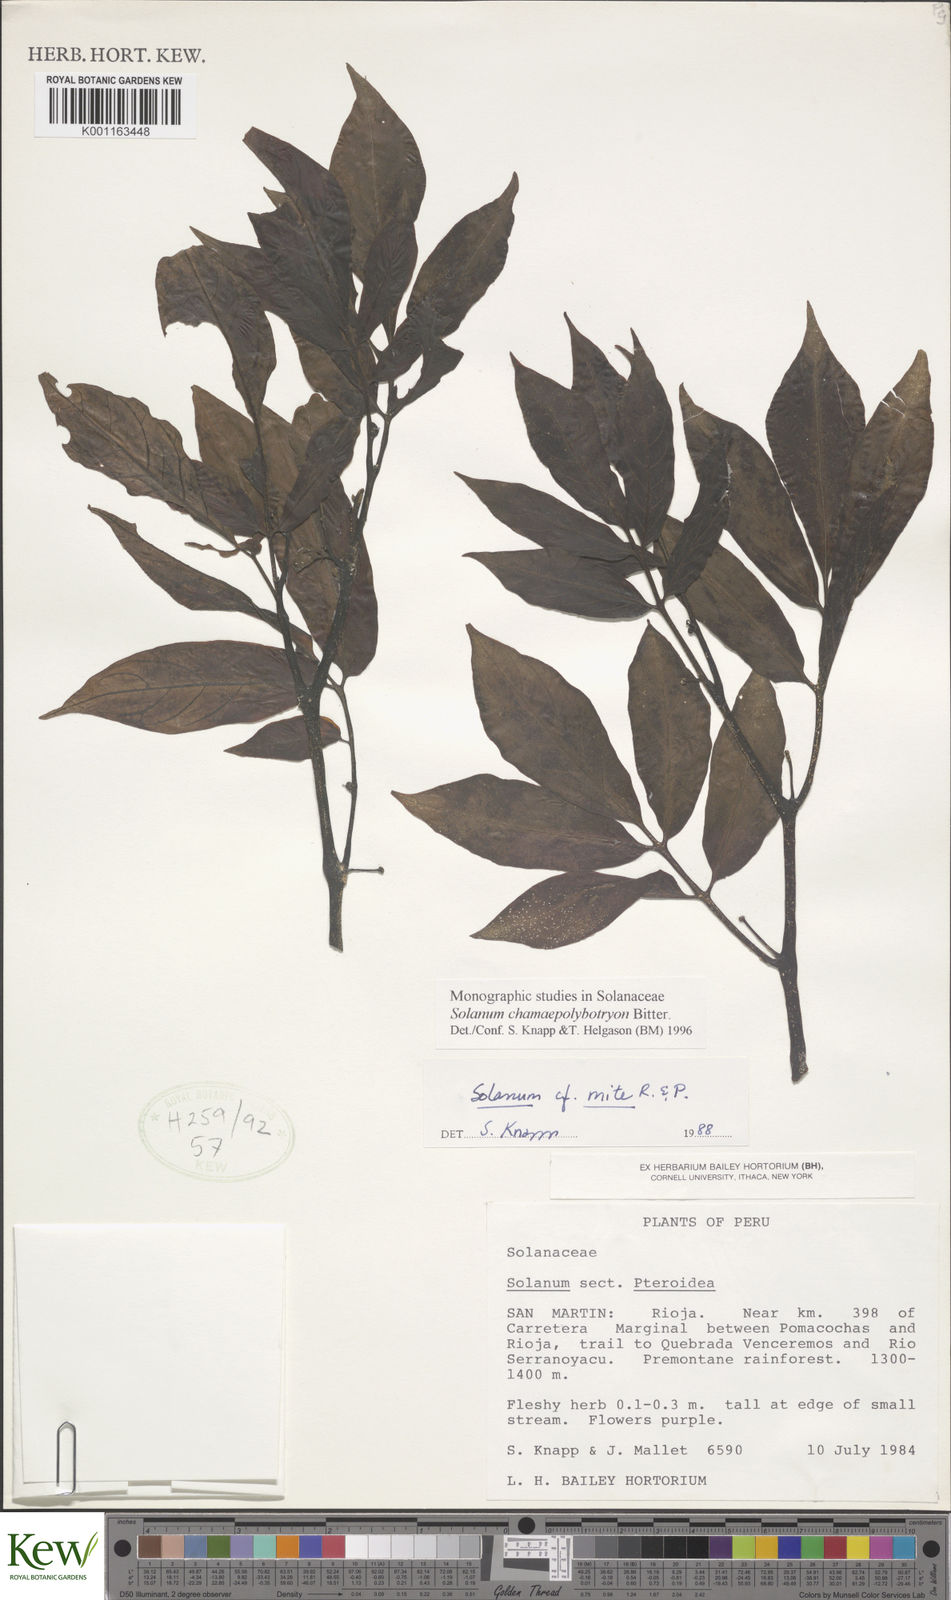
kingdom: Plantae
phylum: Tracheophyta
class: Magnoliopsida
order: Solanales
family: Solanaceae
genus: Solanum
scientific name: Solanum trizygum
